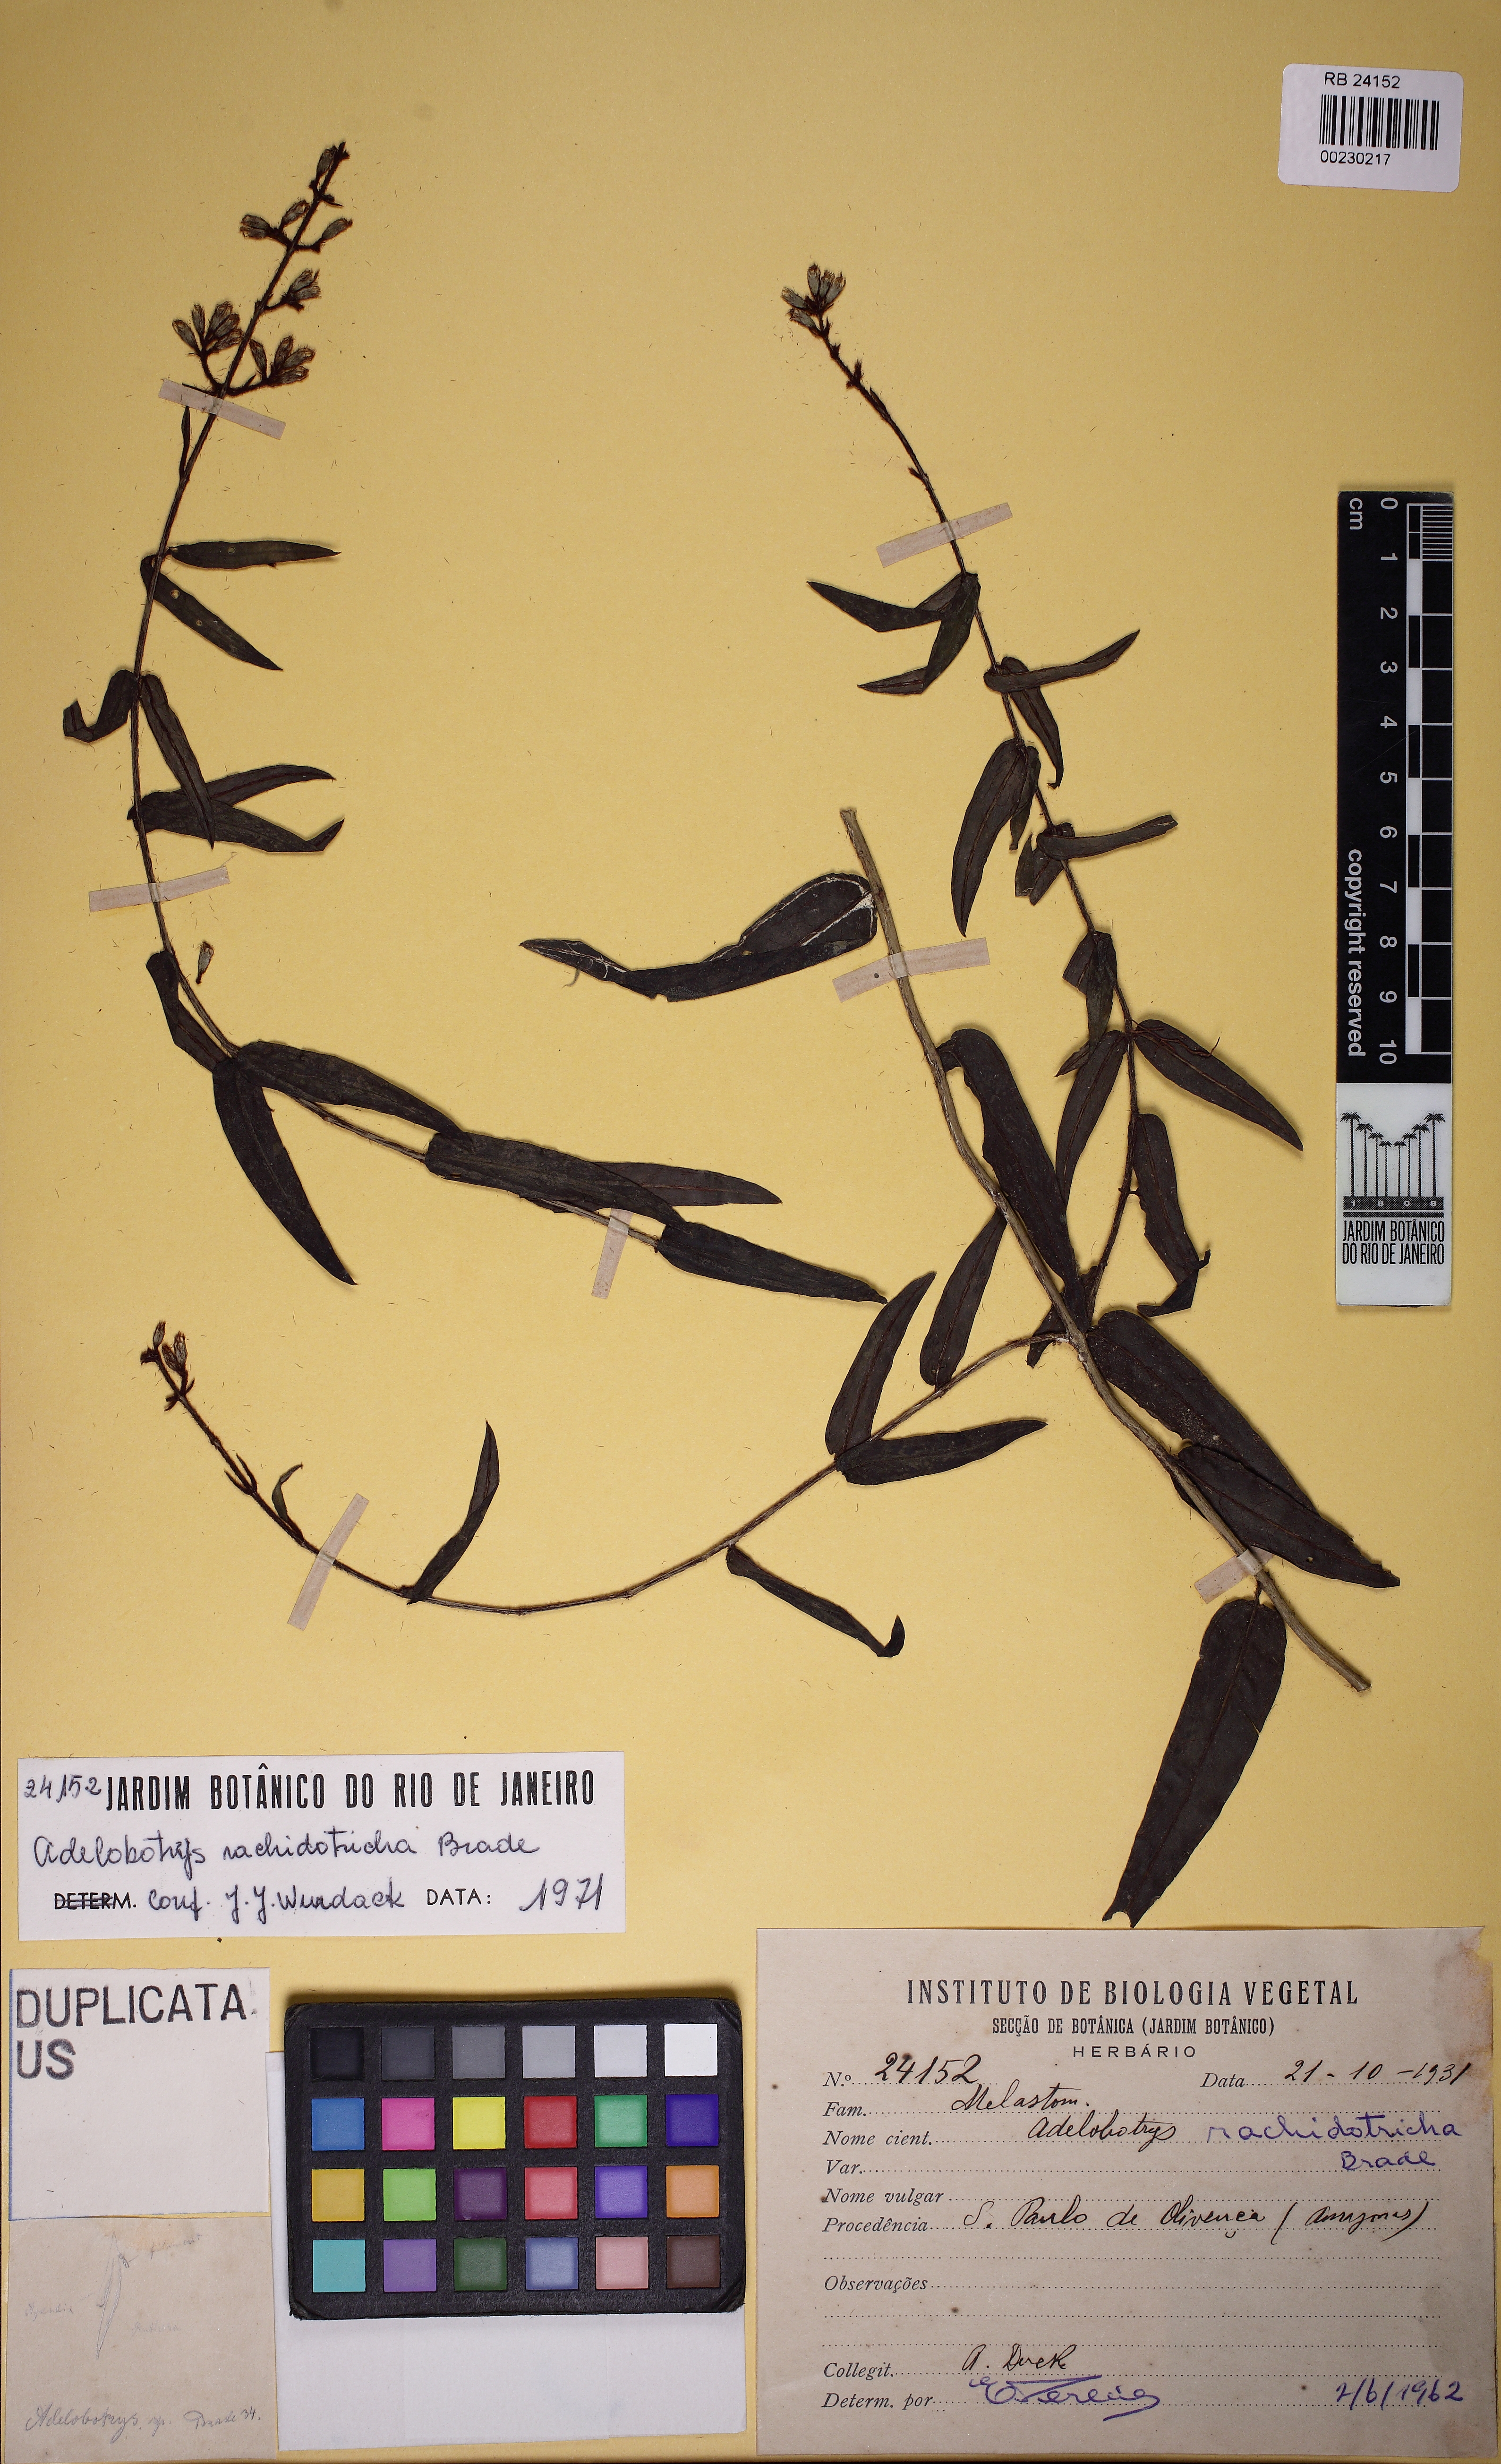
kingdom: Plantae
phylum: Tracheophyta
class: Magnoliopsida
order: Myrtales
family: Melastomataceae
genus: Adelobotrys
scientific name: Adelobotrys rachidotrichus
